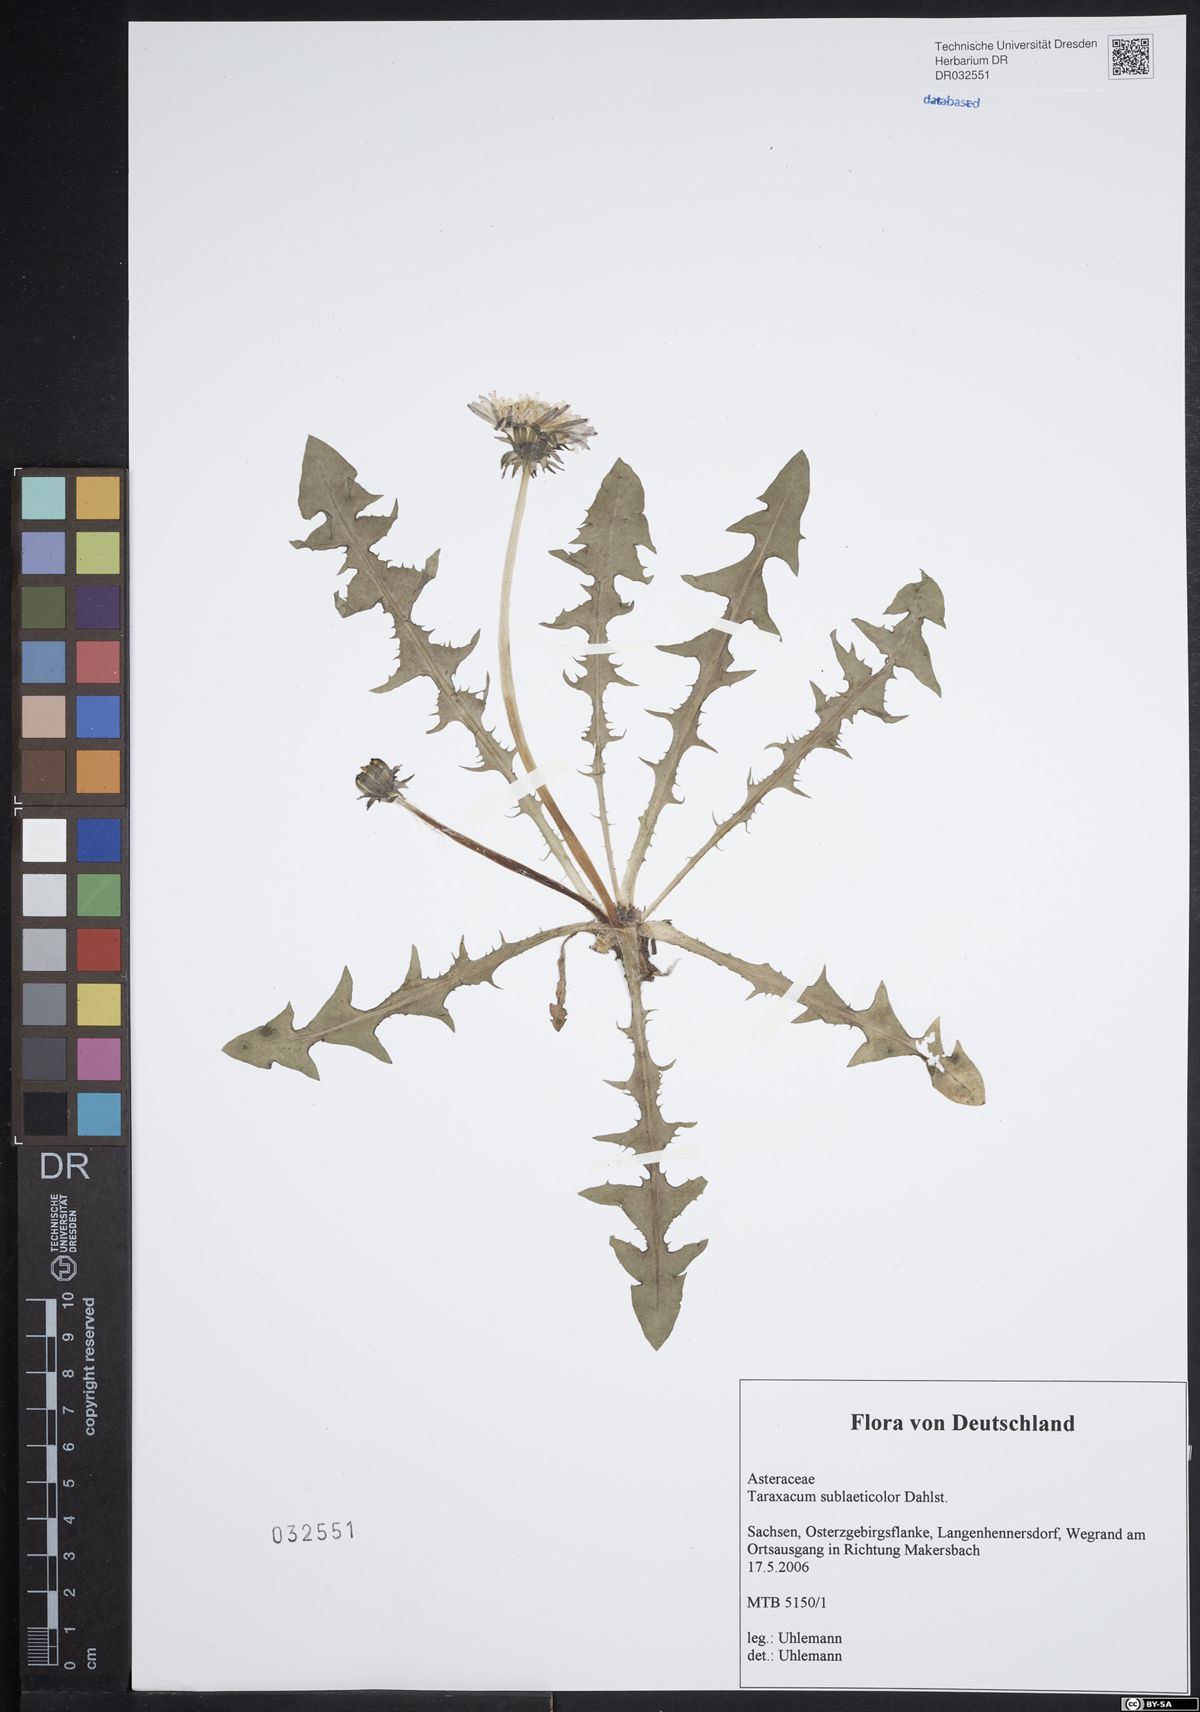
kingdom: Plantae
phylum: Tracheophyta
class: Magnoliopsida
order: Asterales
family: Asteraceae
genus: Taraxacum
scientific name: Taraxacum sublaeticolor
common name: Small-headed dandelion
